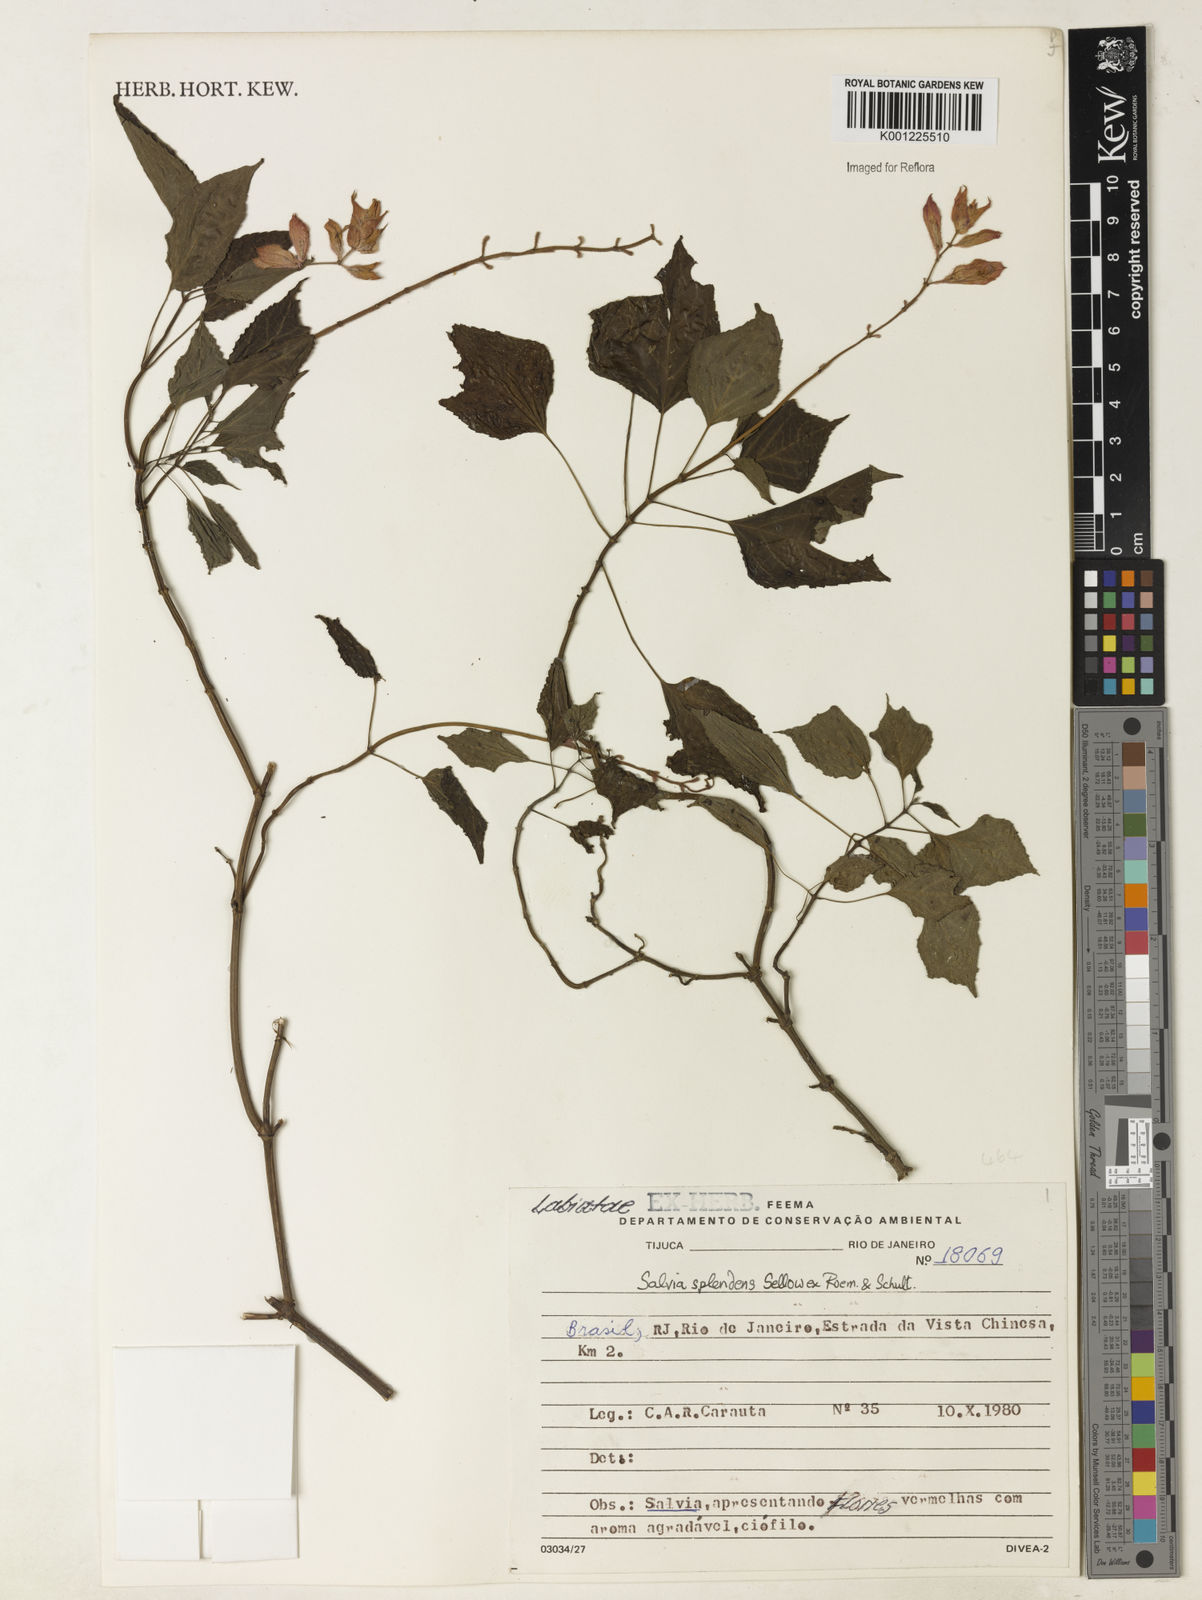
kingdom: Plantae
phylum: Tracheophyta
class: Magnoliopsida
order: Lamiales
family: Lamiaceae
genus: Salvia
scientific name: Salvia
